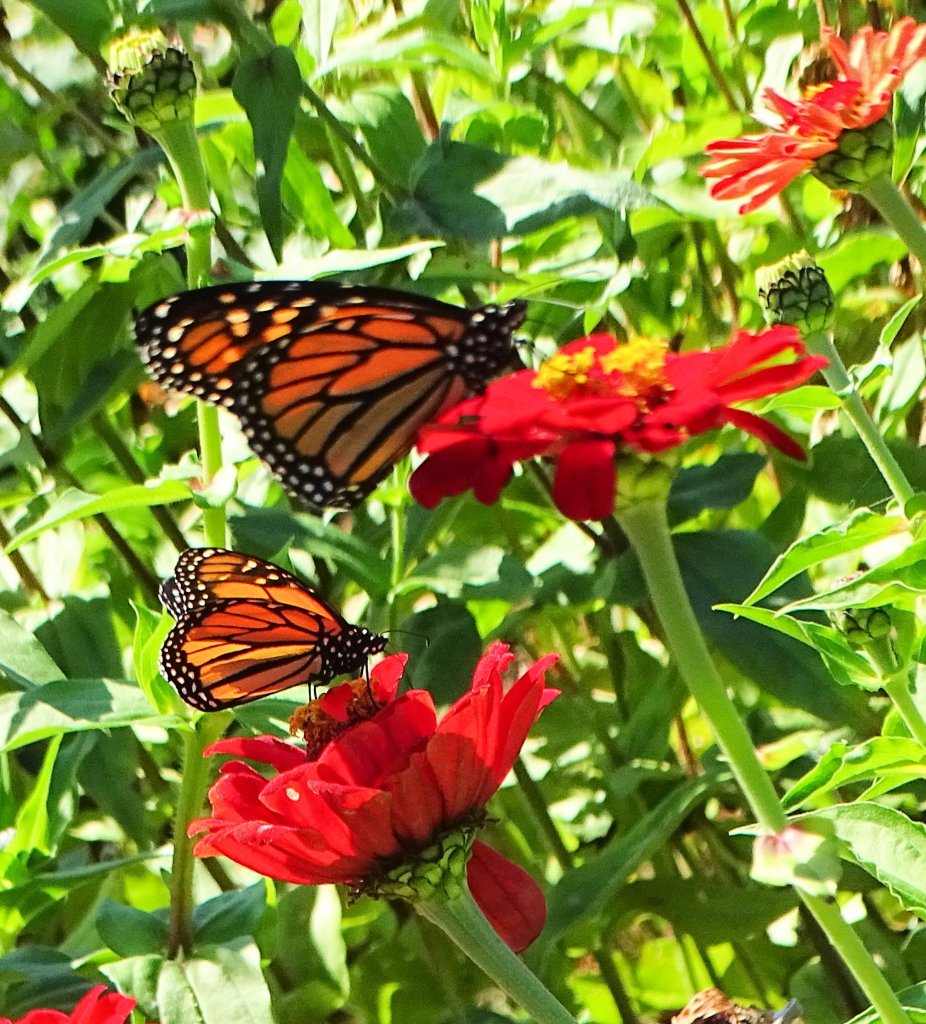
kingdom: Animalia
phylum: Arthropoda
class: Insecta
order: Lepidoptera
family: Nymphalidae
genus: Danaus
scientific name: Danaus plexippus
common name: Monarch
